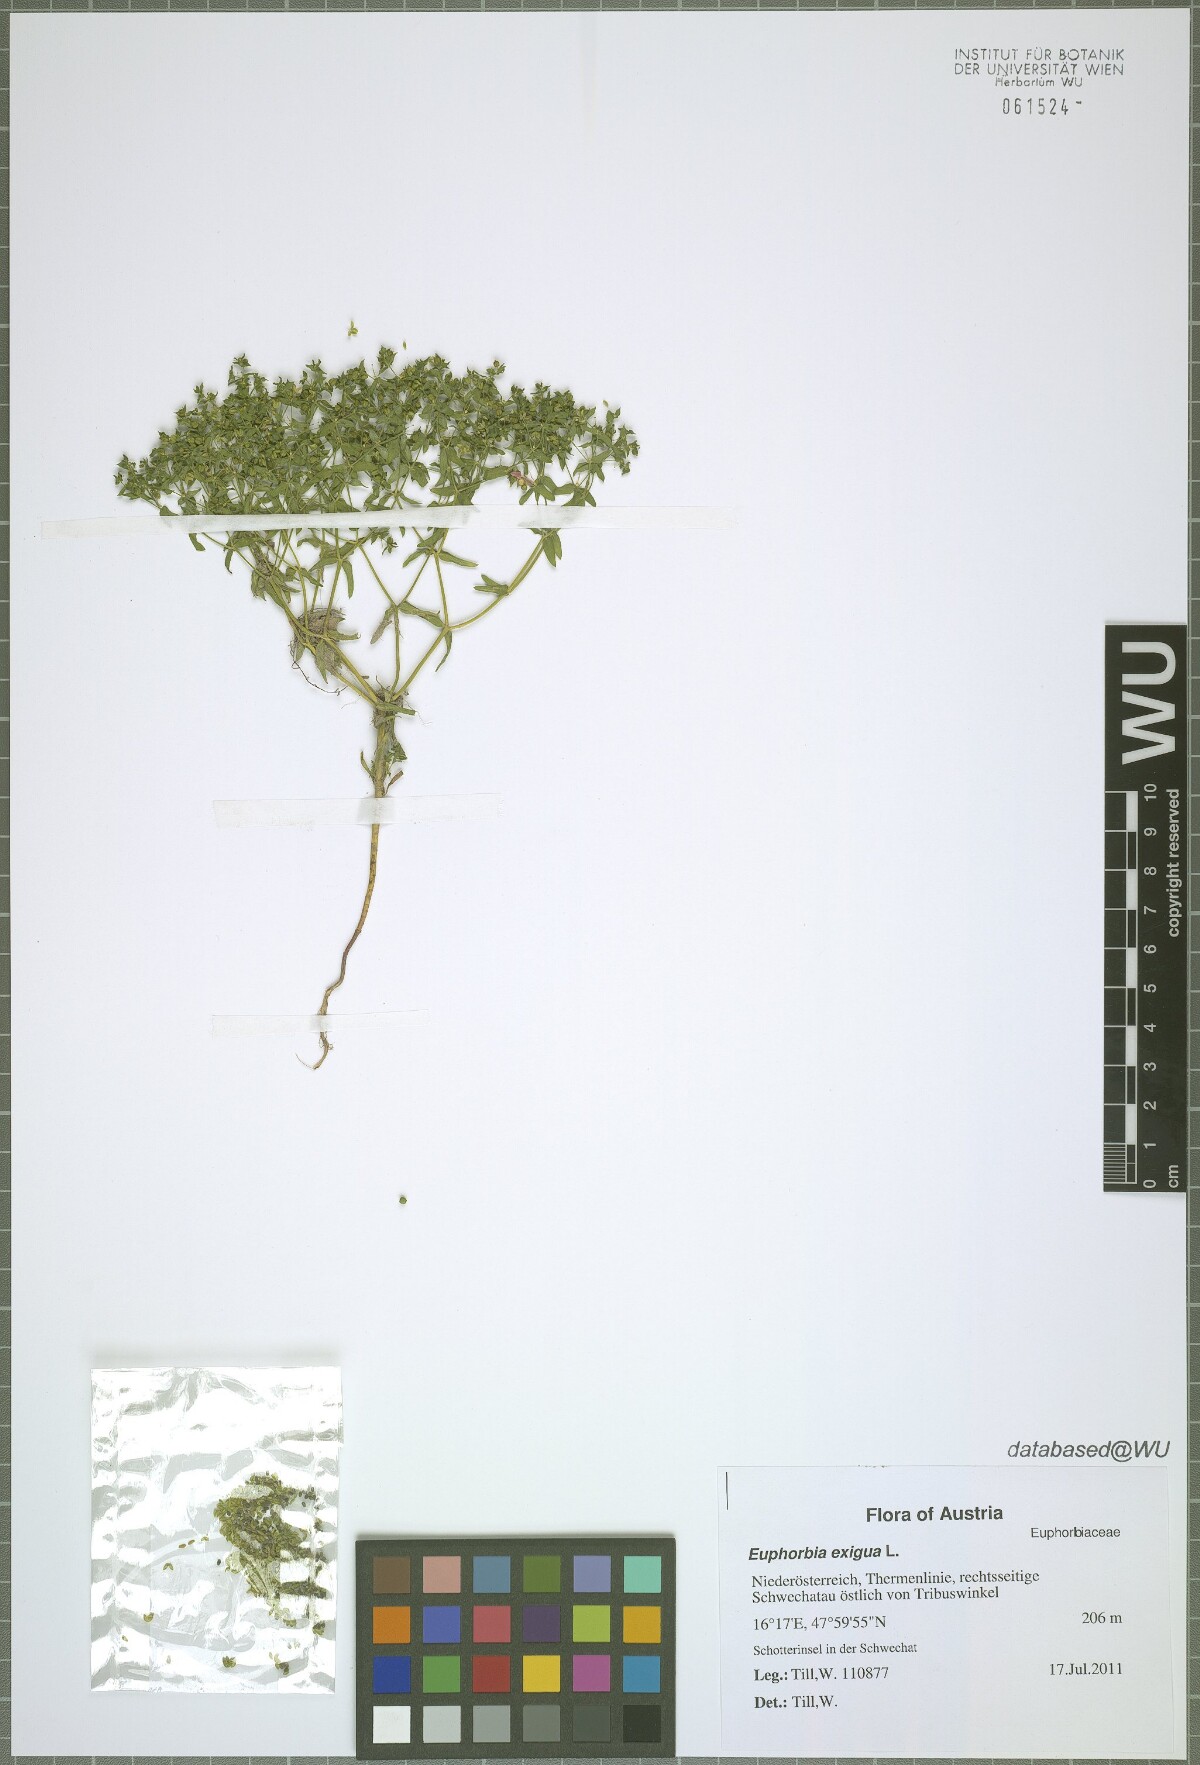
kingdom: Plantae
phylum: Tracheophyta
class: Magnoliopsida
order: Malpighiales
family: Euphorbiaceae
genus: Euphorbia
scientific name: Euphorbia exigua
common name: Dwarf spurge
